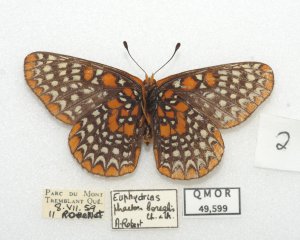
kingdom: Animalia
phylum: Arthropoda
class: Insecta
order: Lepidoptera
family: Nymphalidae
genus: Euphydryas
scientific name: Euphydryas phaeton
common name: Baltimore Checkerspot
